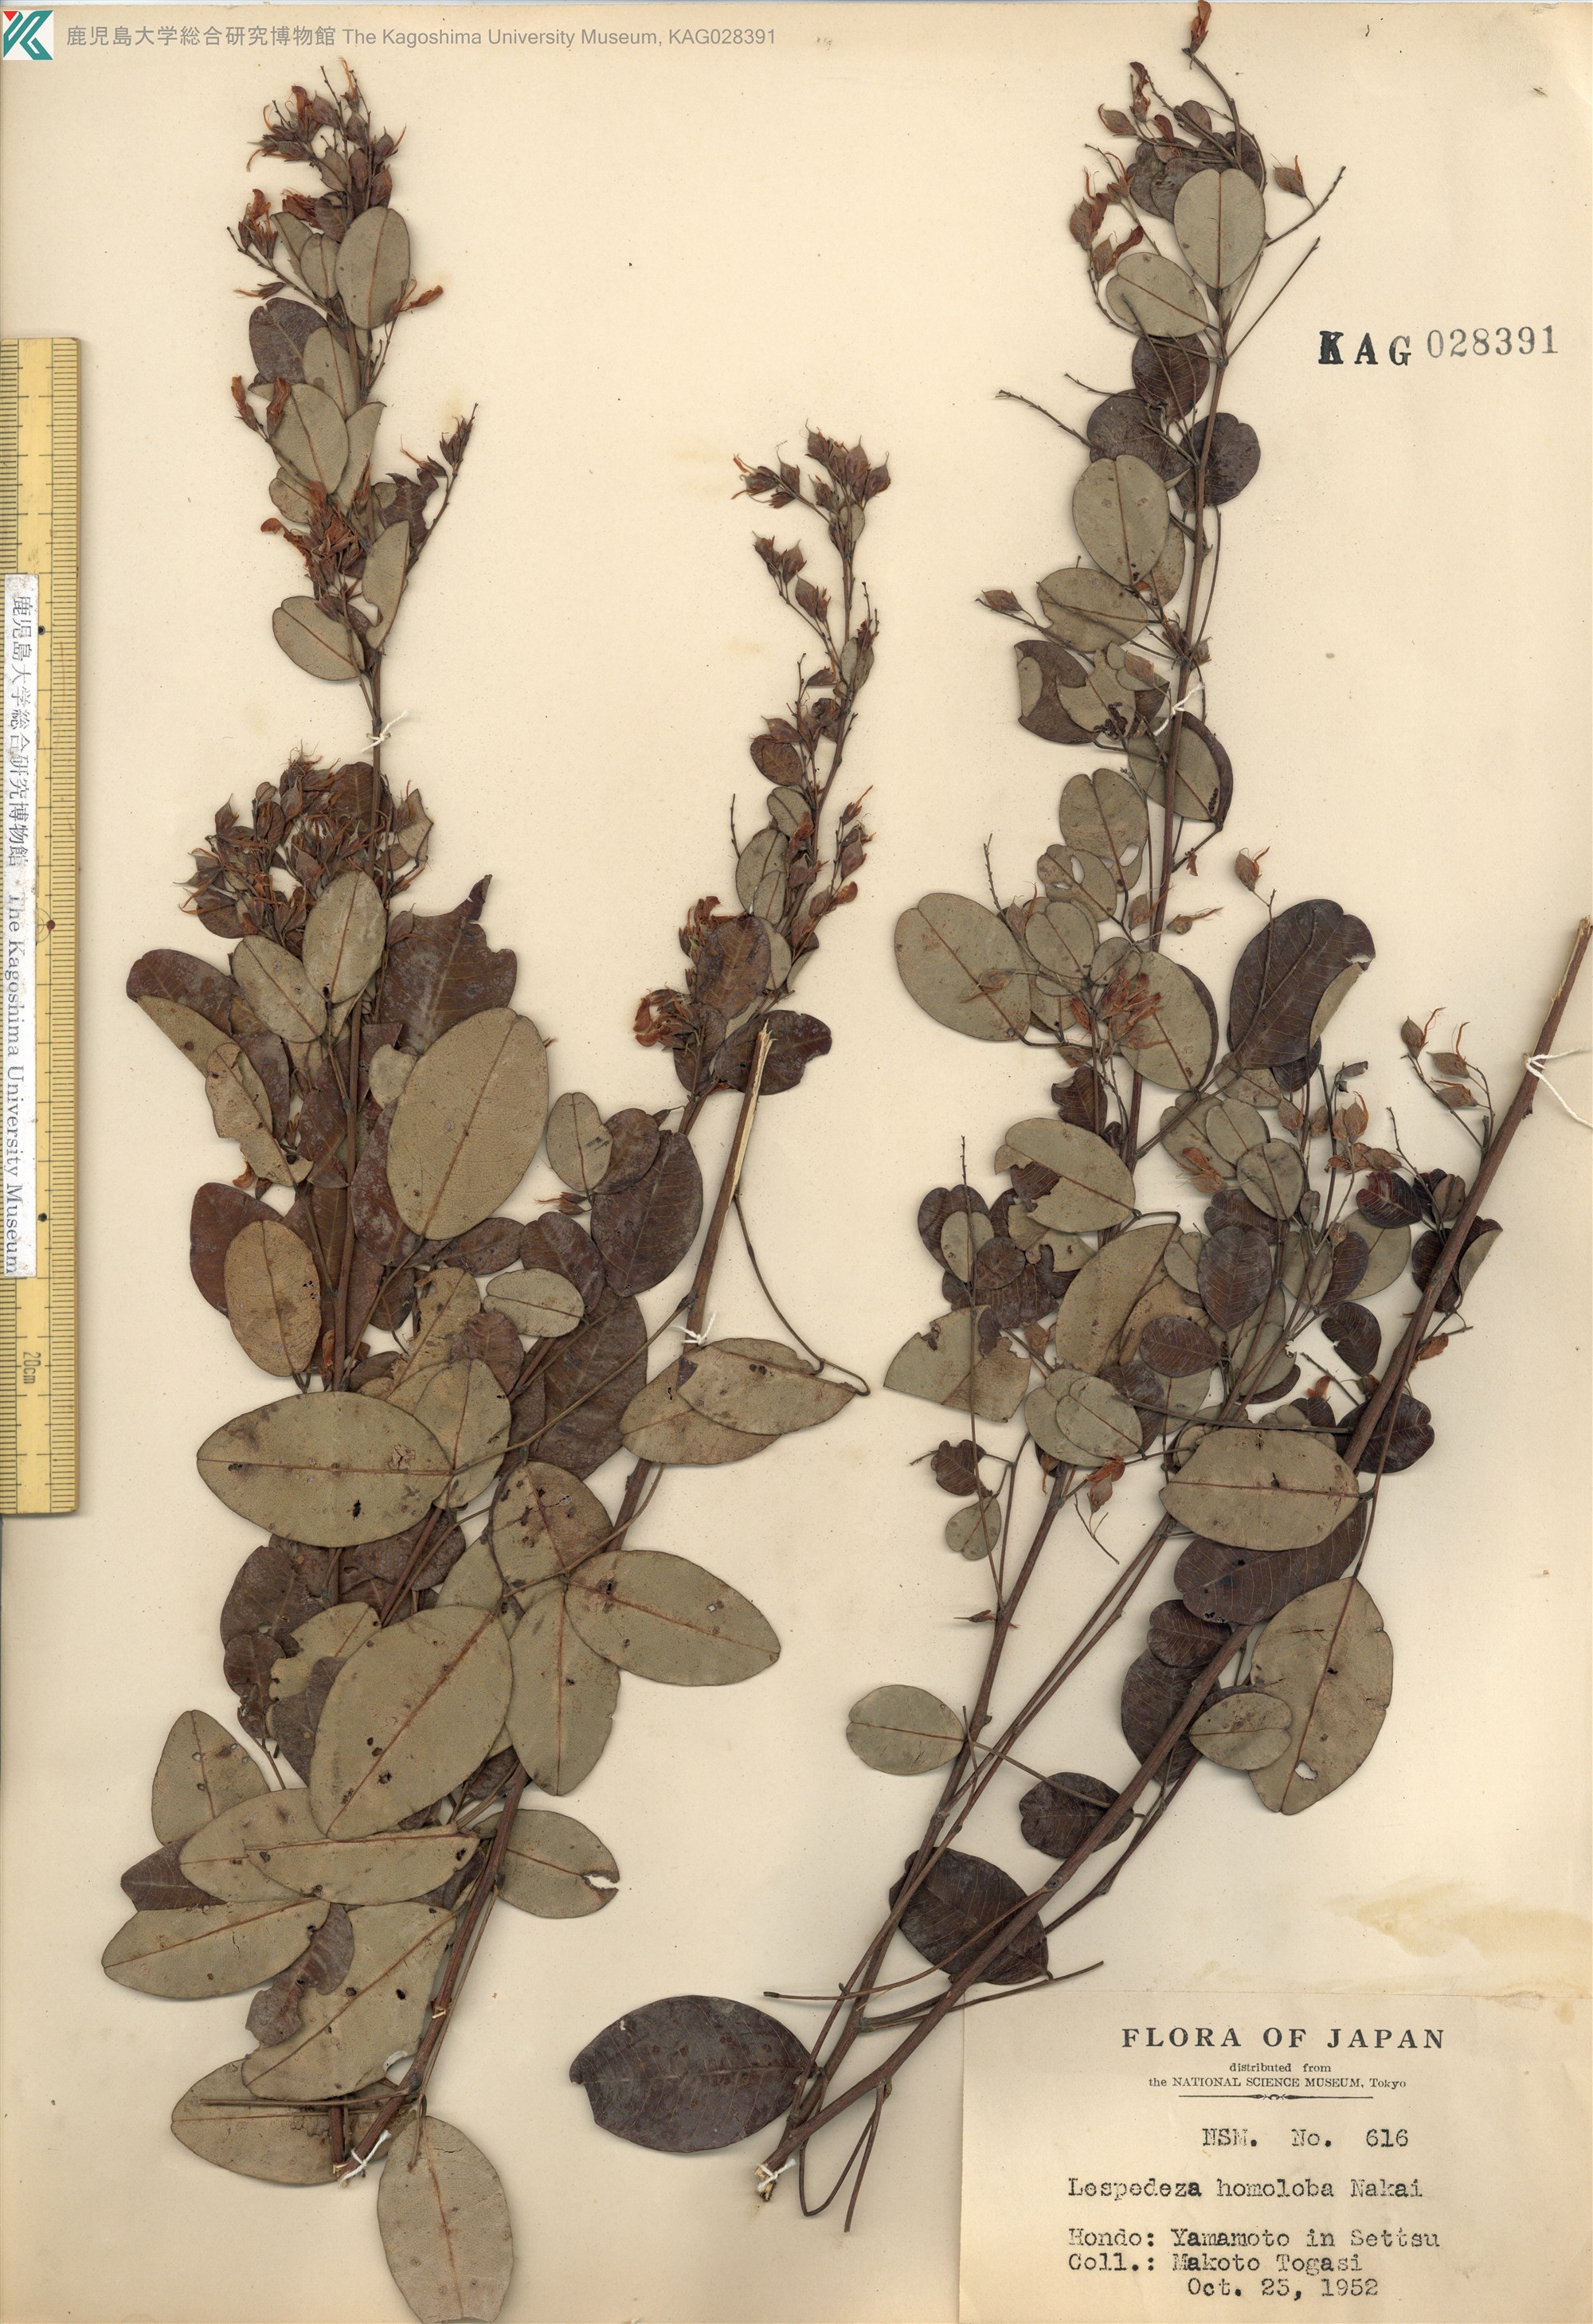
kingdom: Plantae
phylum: Tracheophyta
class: Magnoliopsida
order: Fabales
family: Fabaceae
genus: Lespedeza
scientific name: Lespedeza homoloba
